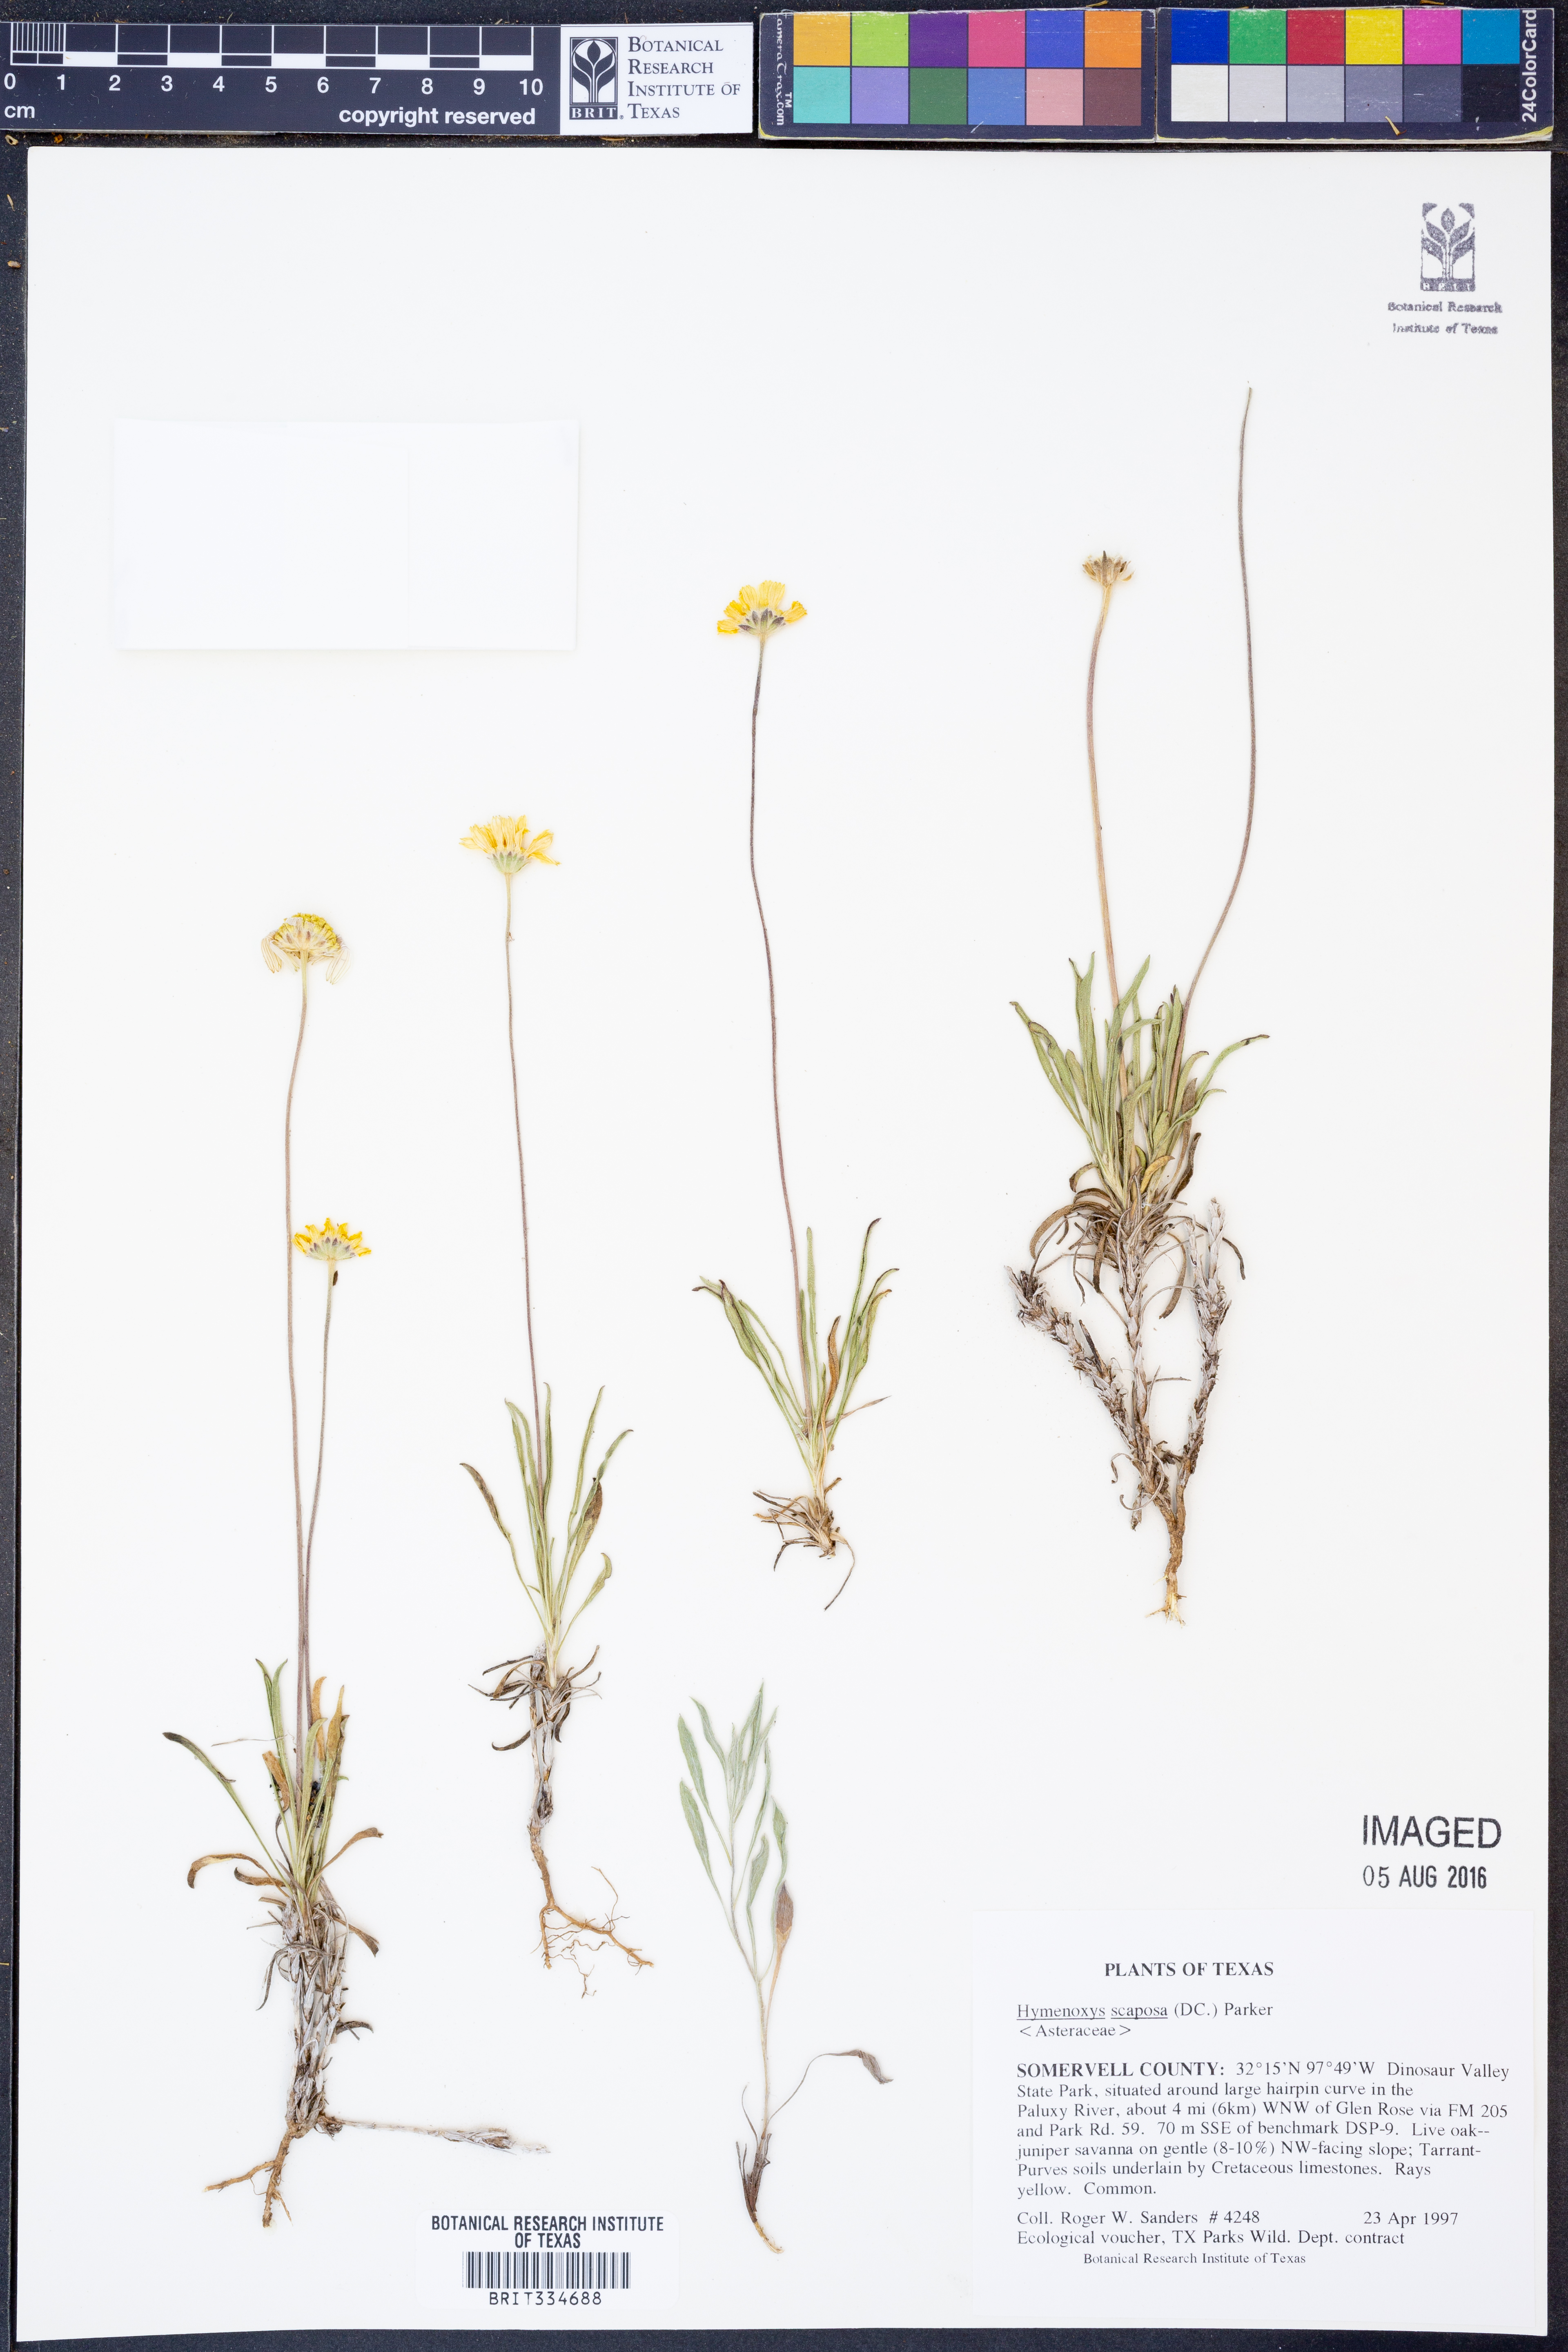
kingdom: Plantae
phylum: Tracheophyta
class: Magnoliopsida
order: Asterales
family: Asteraceae
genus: Tetraneuris
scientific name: Tetraneuris scaposa
